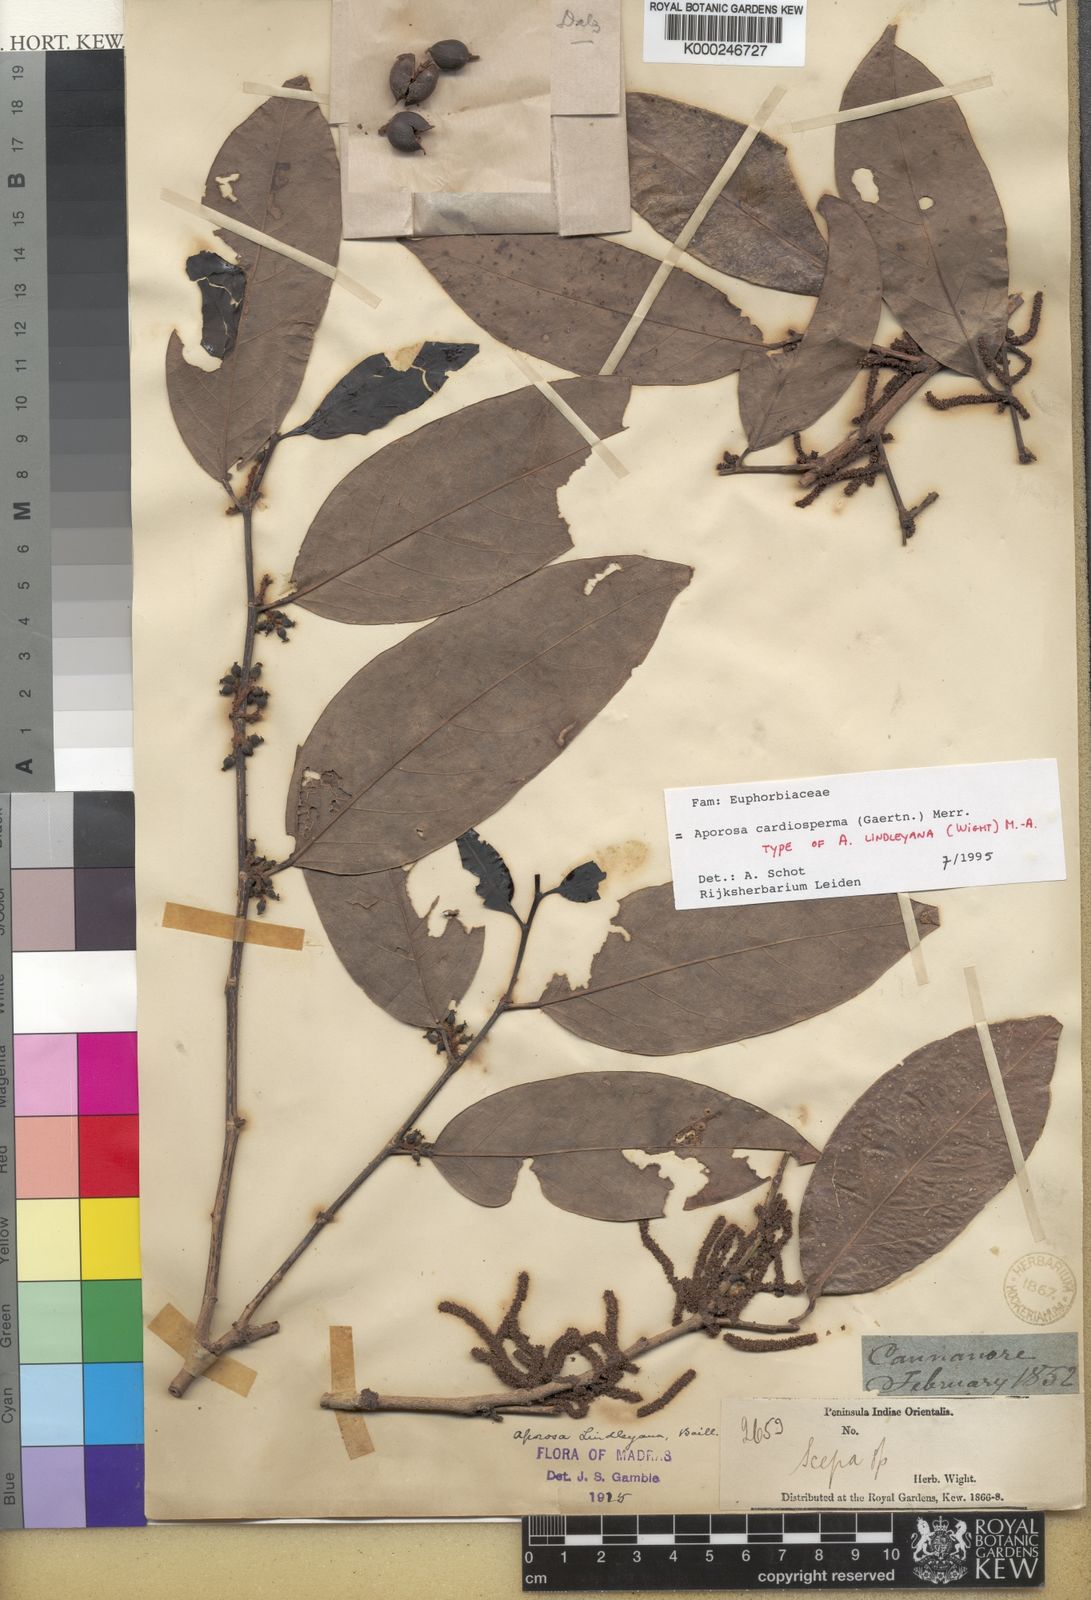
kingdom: Plantae
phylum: Tracheophyta
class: Magnoliopsida
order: Malpighiales
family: Phyllanthaceae
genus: Aporosa
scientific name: Aporosa cardiosperma
